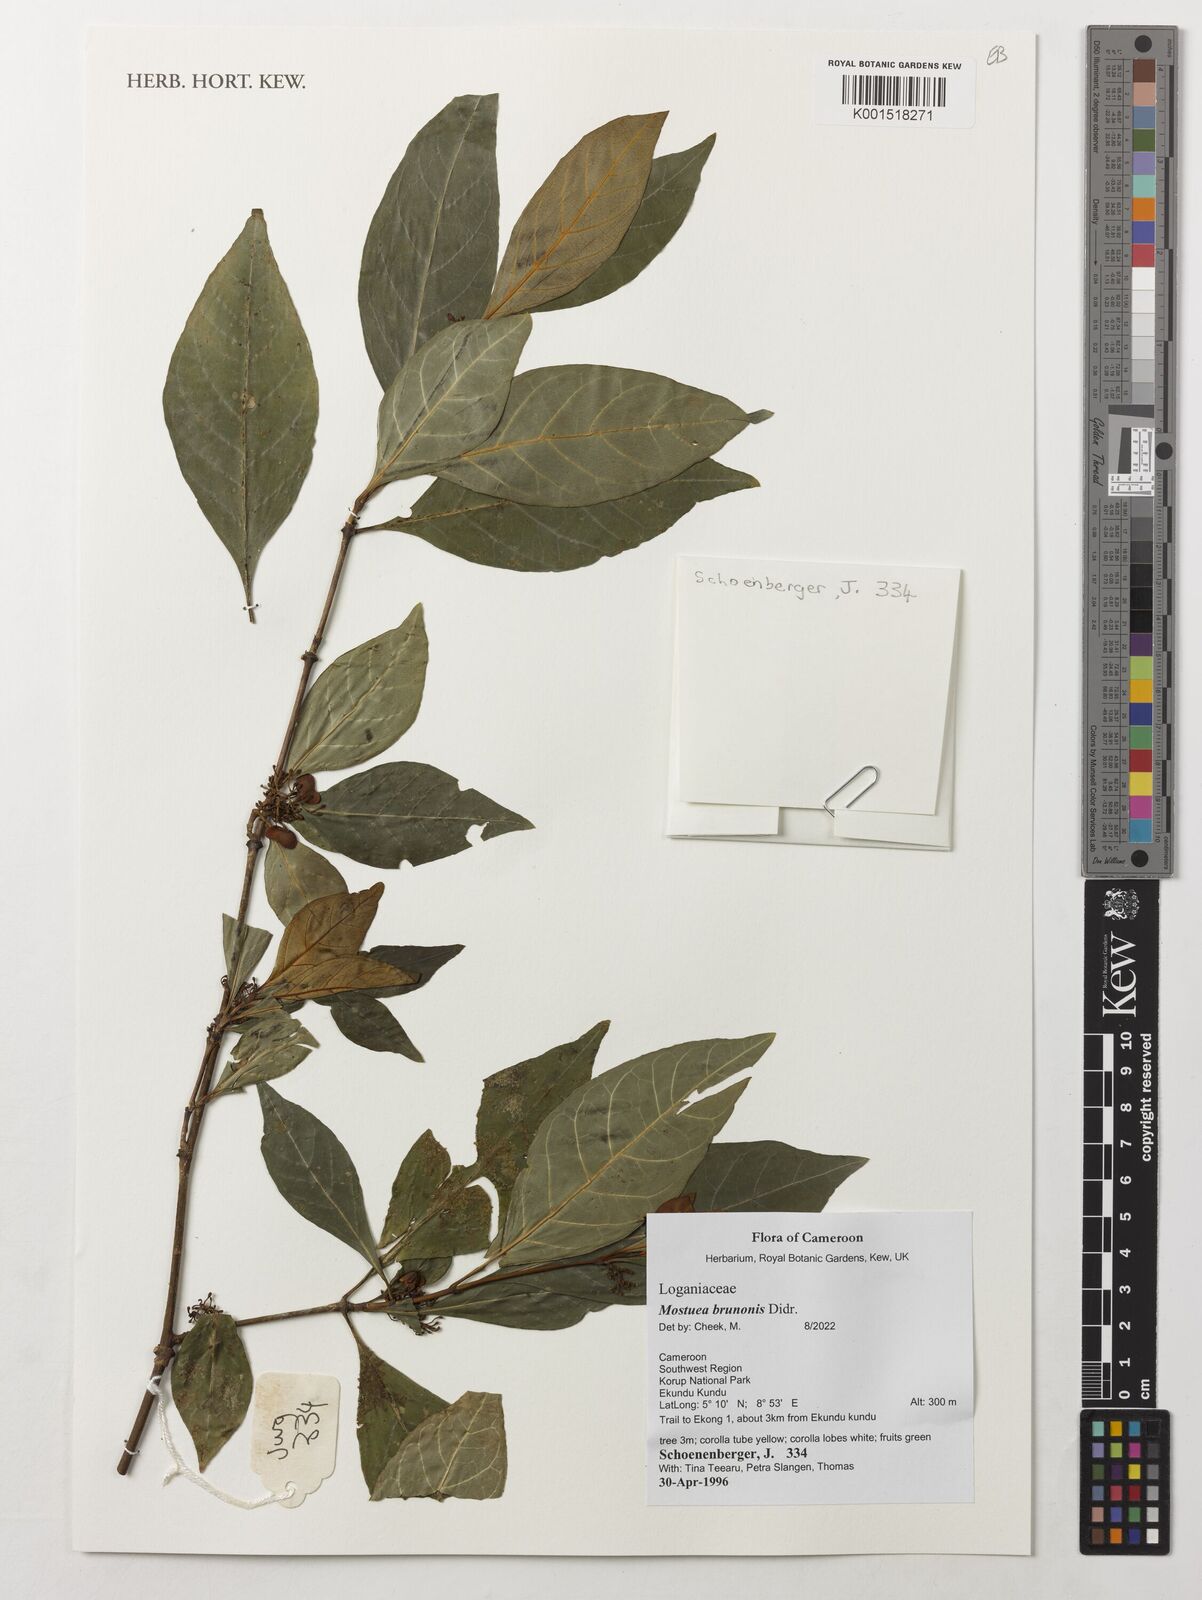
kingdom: Plantae
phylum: Tracheophyta
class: Magnoliopsida
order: Gentianales
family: Gelsemiaceae
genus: Mostuea
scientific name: Mostuea brunonis
